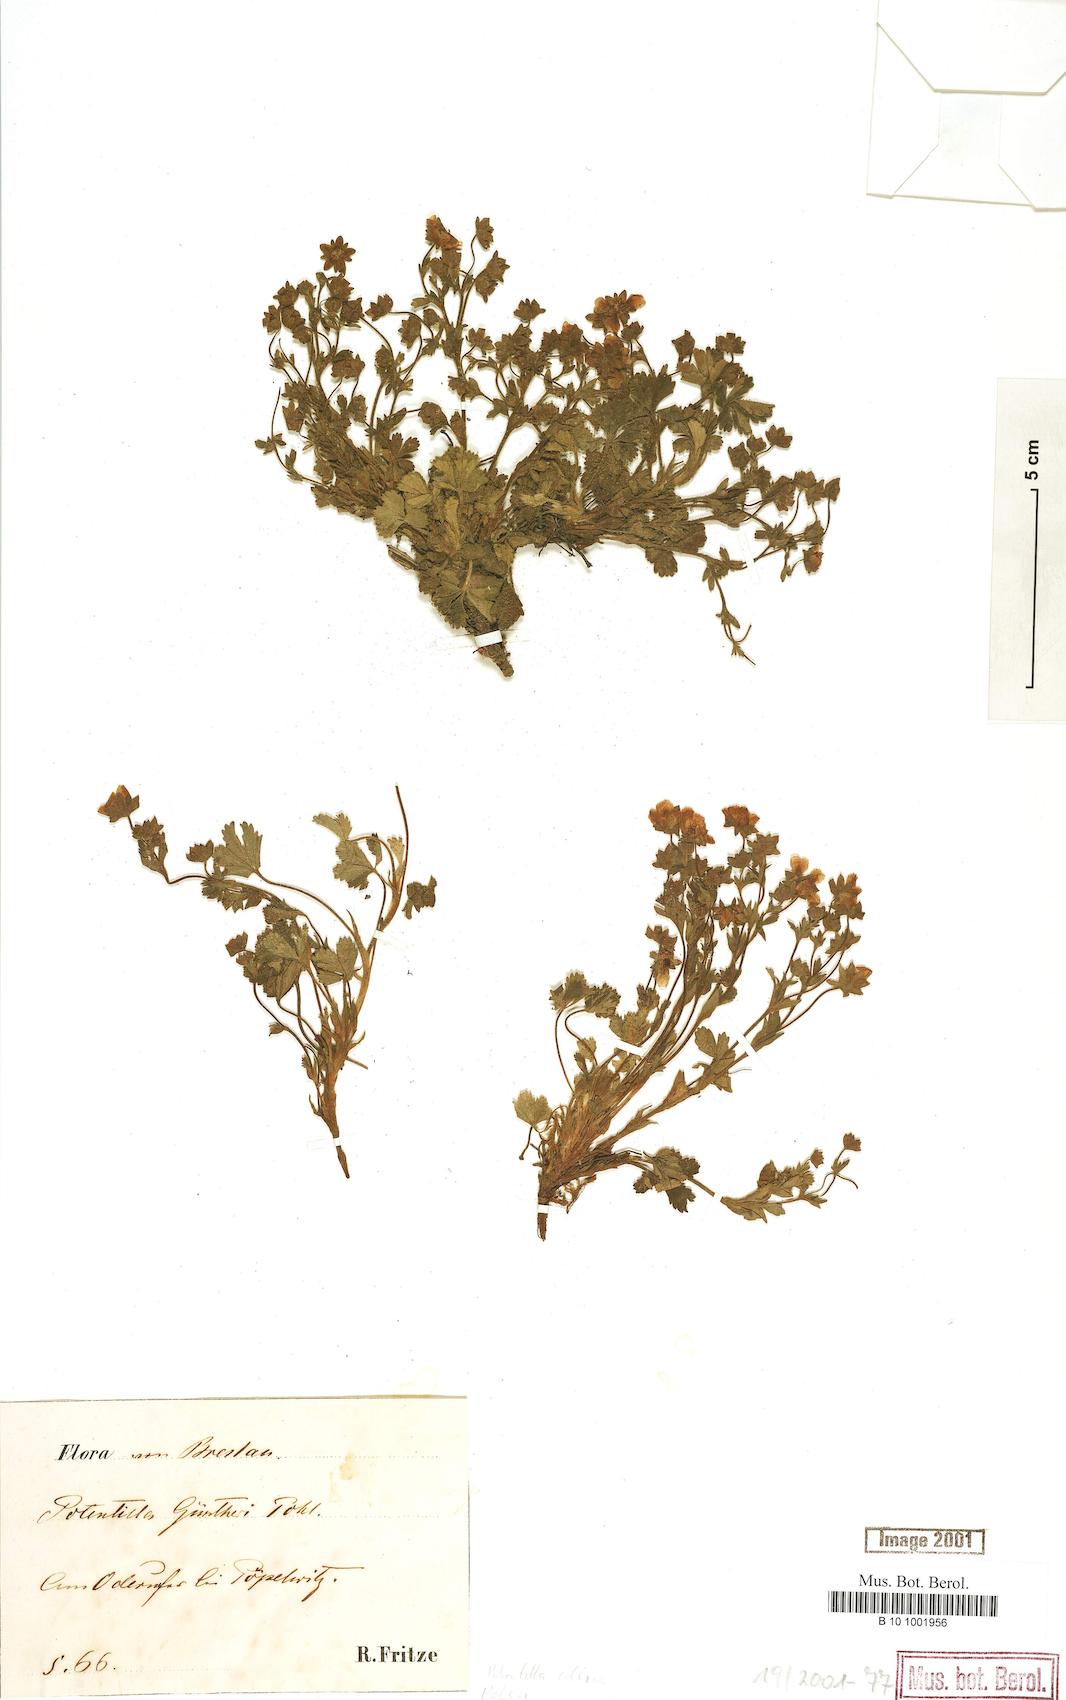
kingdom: Plantae
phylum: Tracheophyta
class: Magnoliopsida
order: Rosales
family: Rosaceae
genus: Potentilla
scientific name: Potentilla collina
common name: Palmleaf cinquefoil
